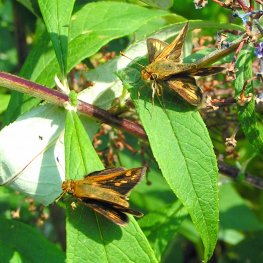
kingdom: Animalia
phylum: Arthropoda
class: Insecta
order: Lepidoptera
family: Hesperiidae
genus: Polites
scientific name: Polites coras
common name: Peck's Skipper
